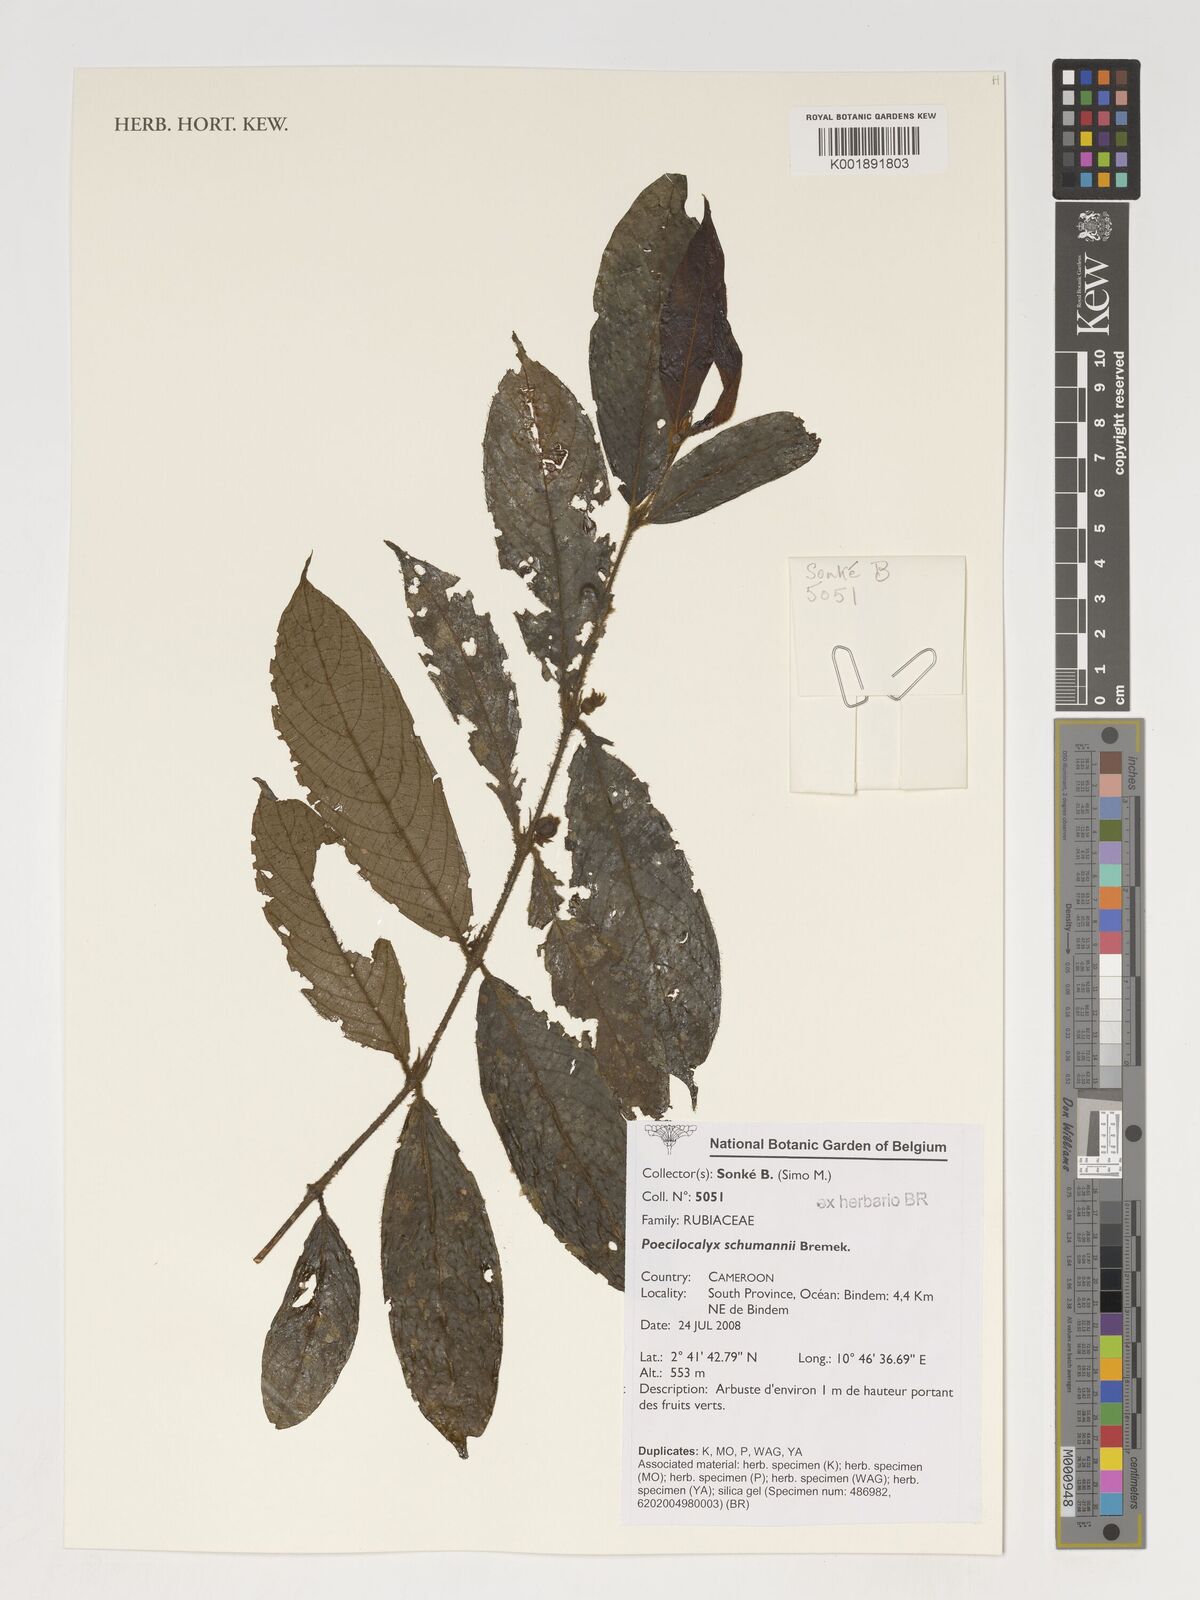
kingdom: Plantae
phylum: Tracheophyta
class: Magnoliopsida
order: Gentianales
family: Rubiaceae
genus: Pauridiantha
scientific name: Pauridiantha schumannii
